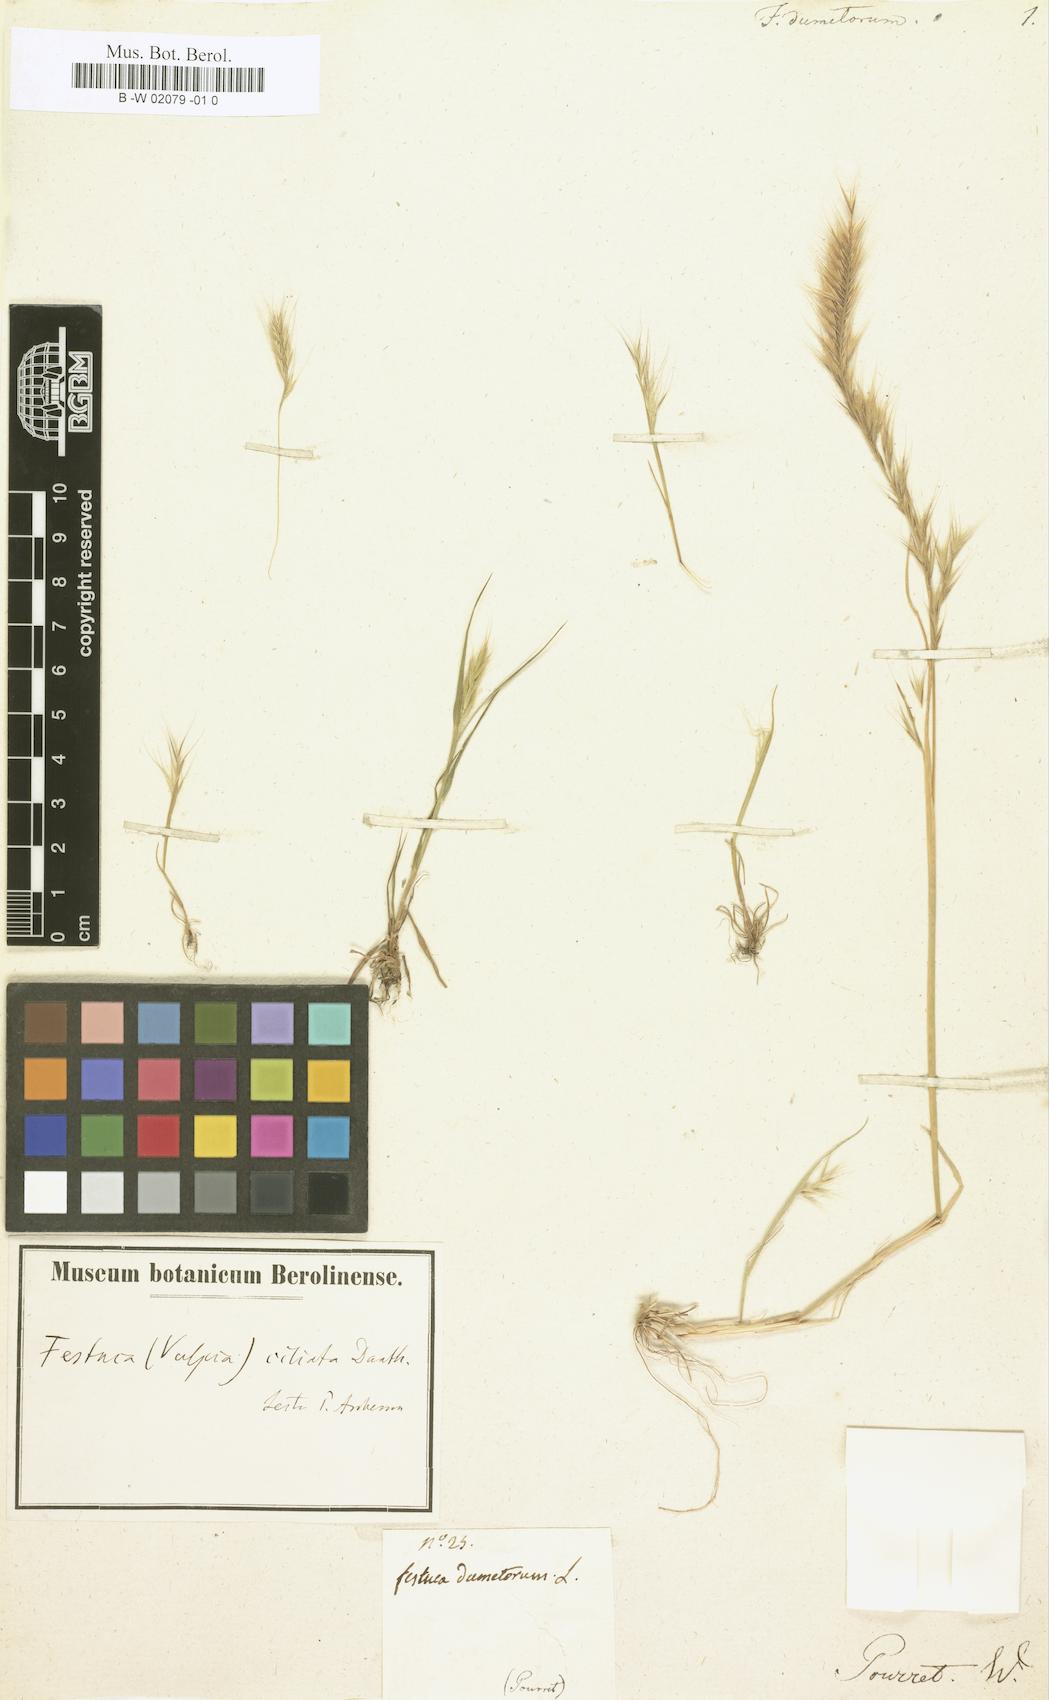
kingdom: Plantae
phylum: Tracheophyta
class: Liliopsida
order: Poales
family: Poaceae
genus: Festuca
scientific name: Festuca
